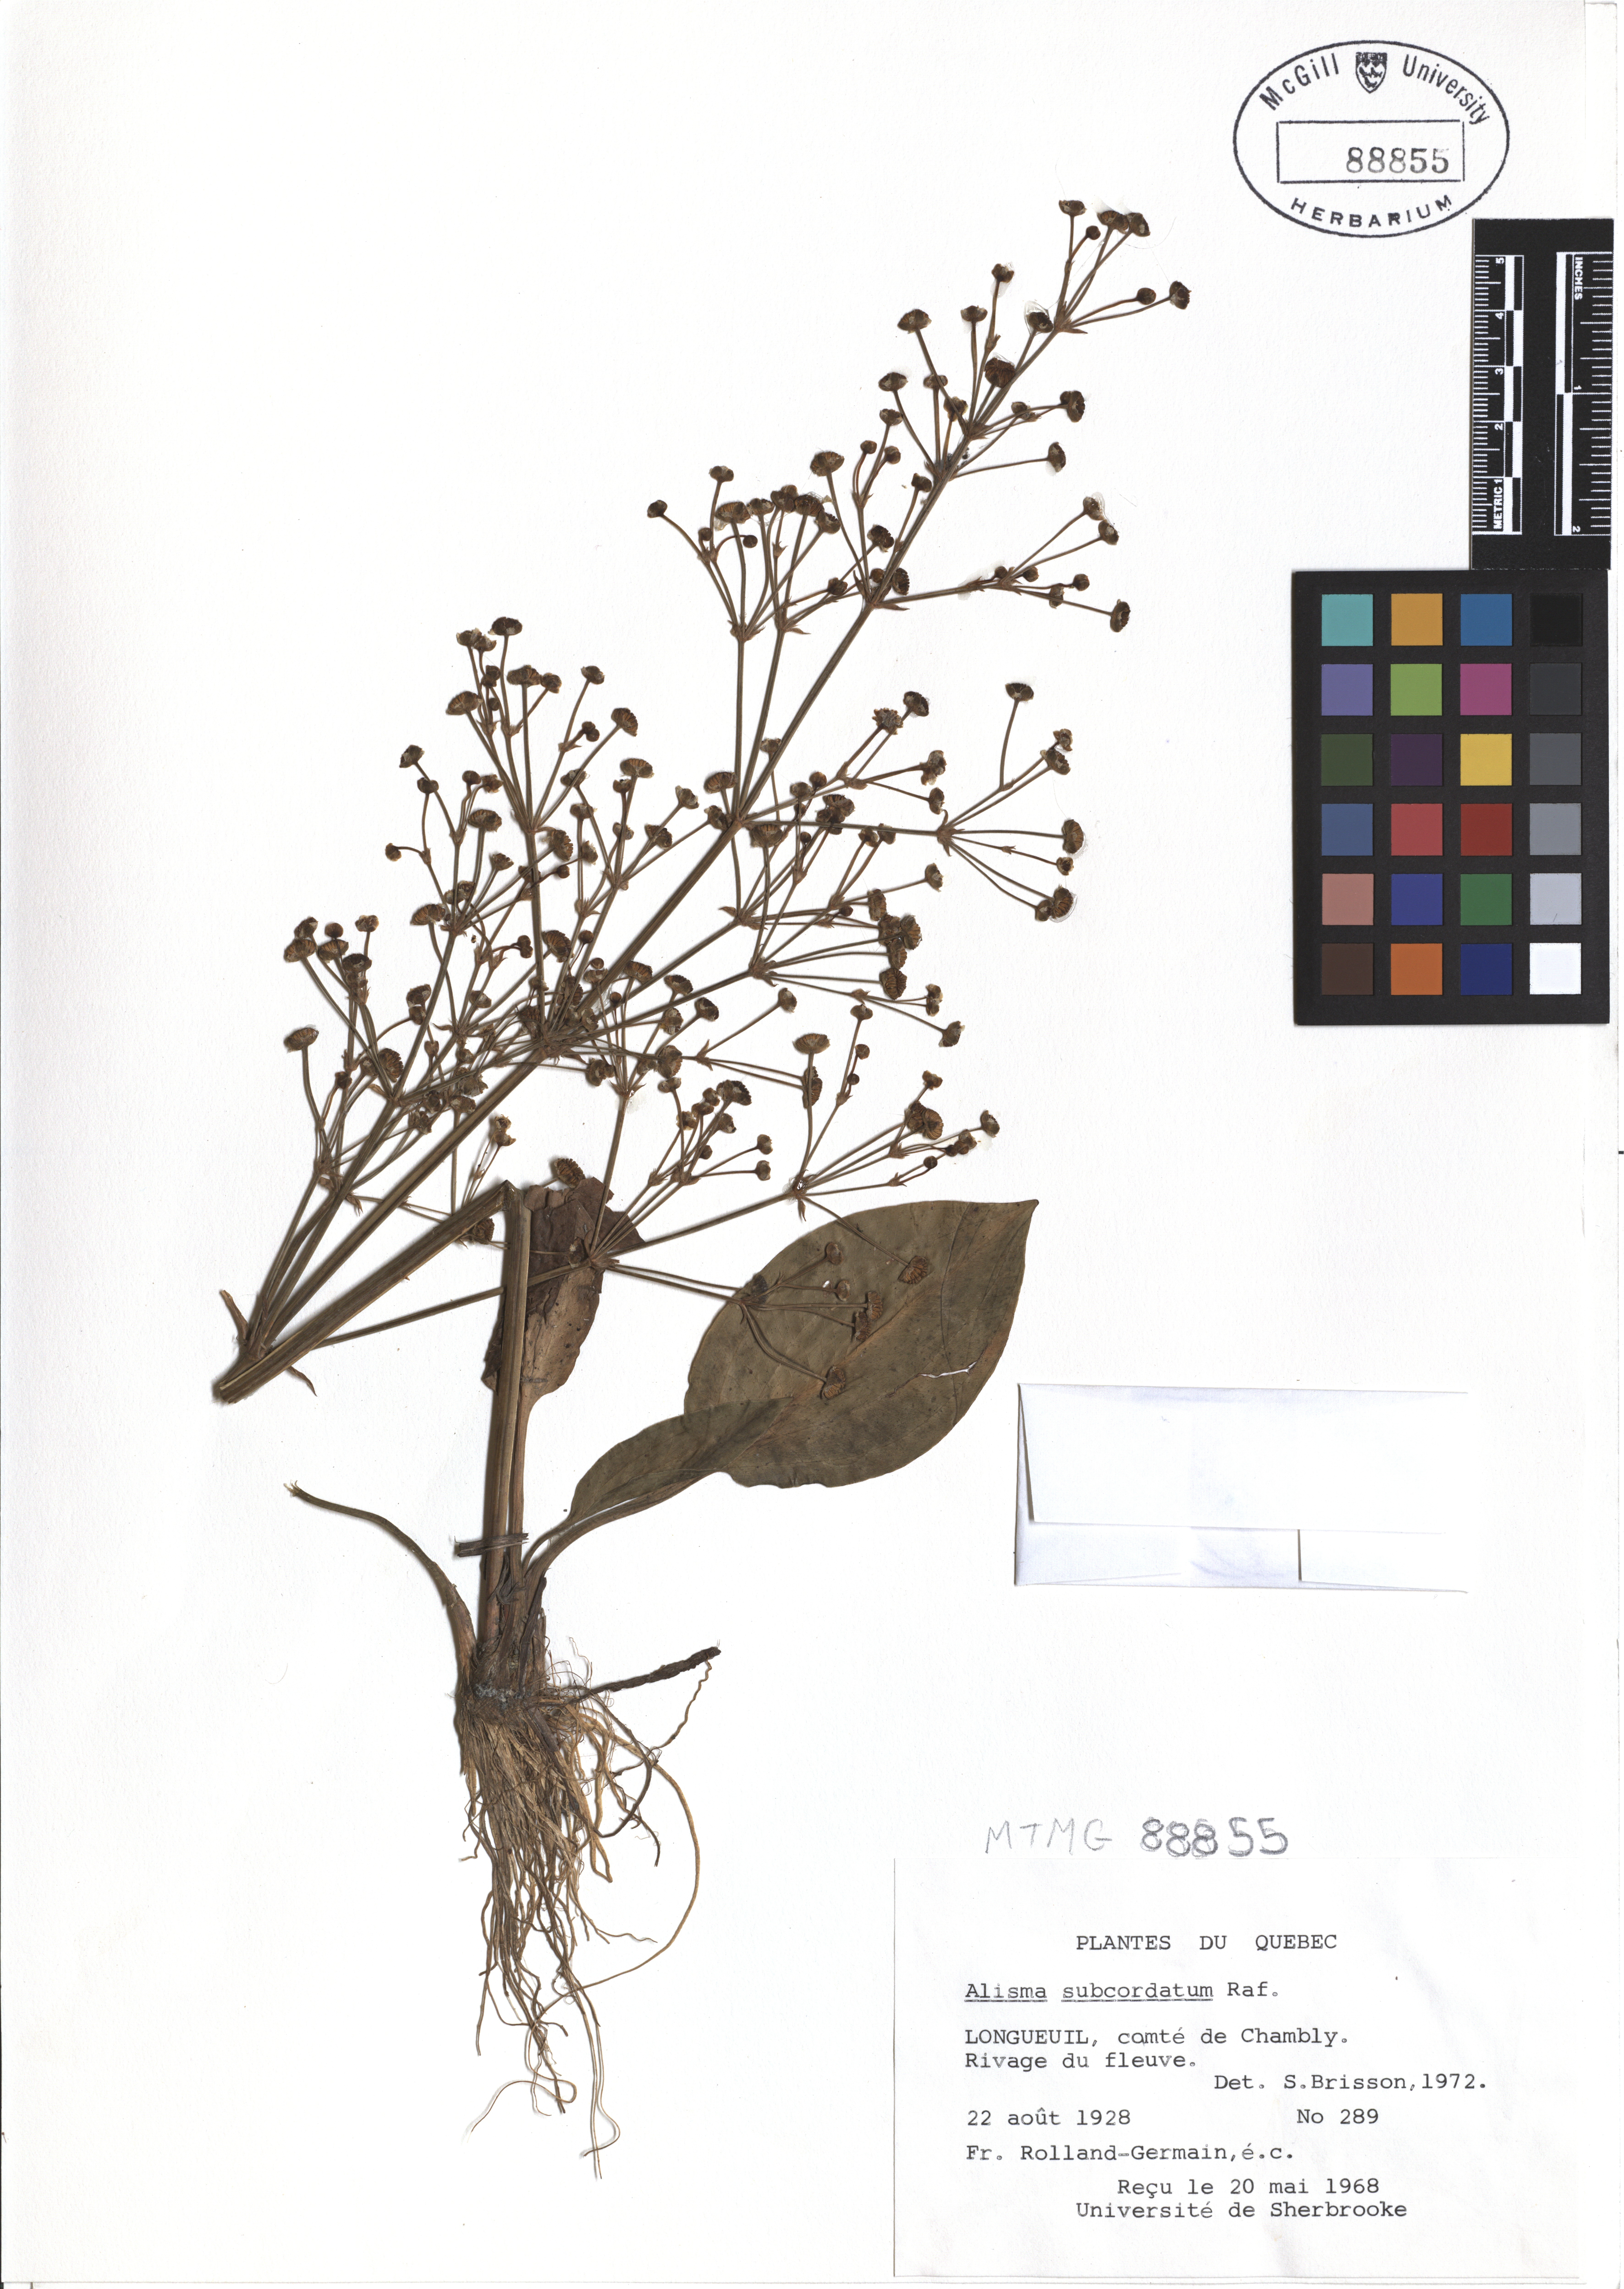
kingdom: Plantae
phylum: Tracheophyta
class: Liliopsida
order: Alismatales
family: Alismataceae
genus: Alisma
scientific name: Alisma subcordatum
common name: Southern water-plantain
